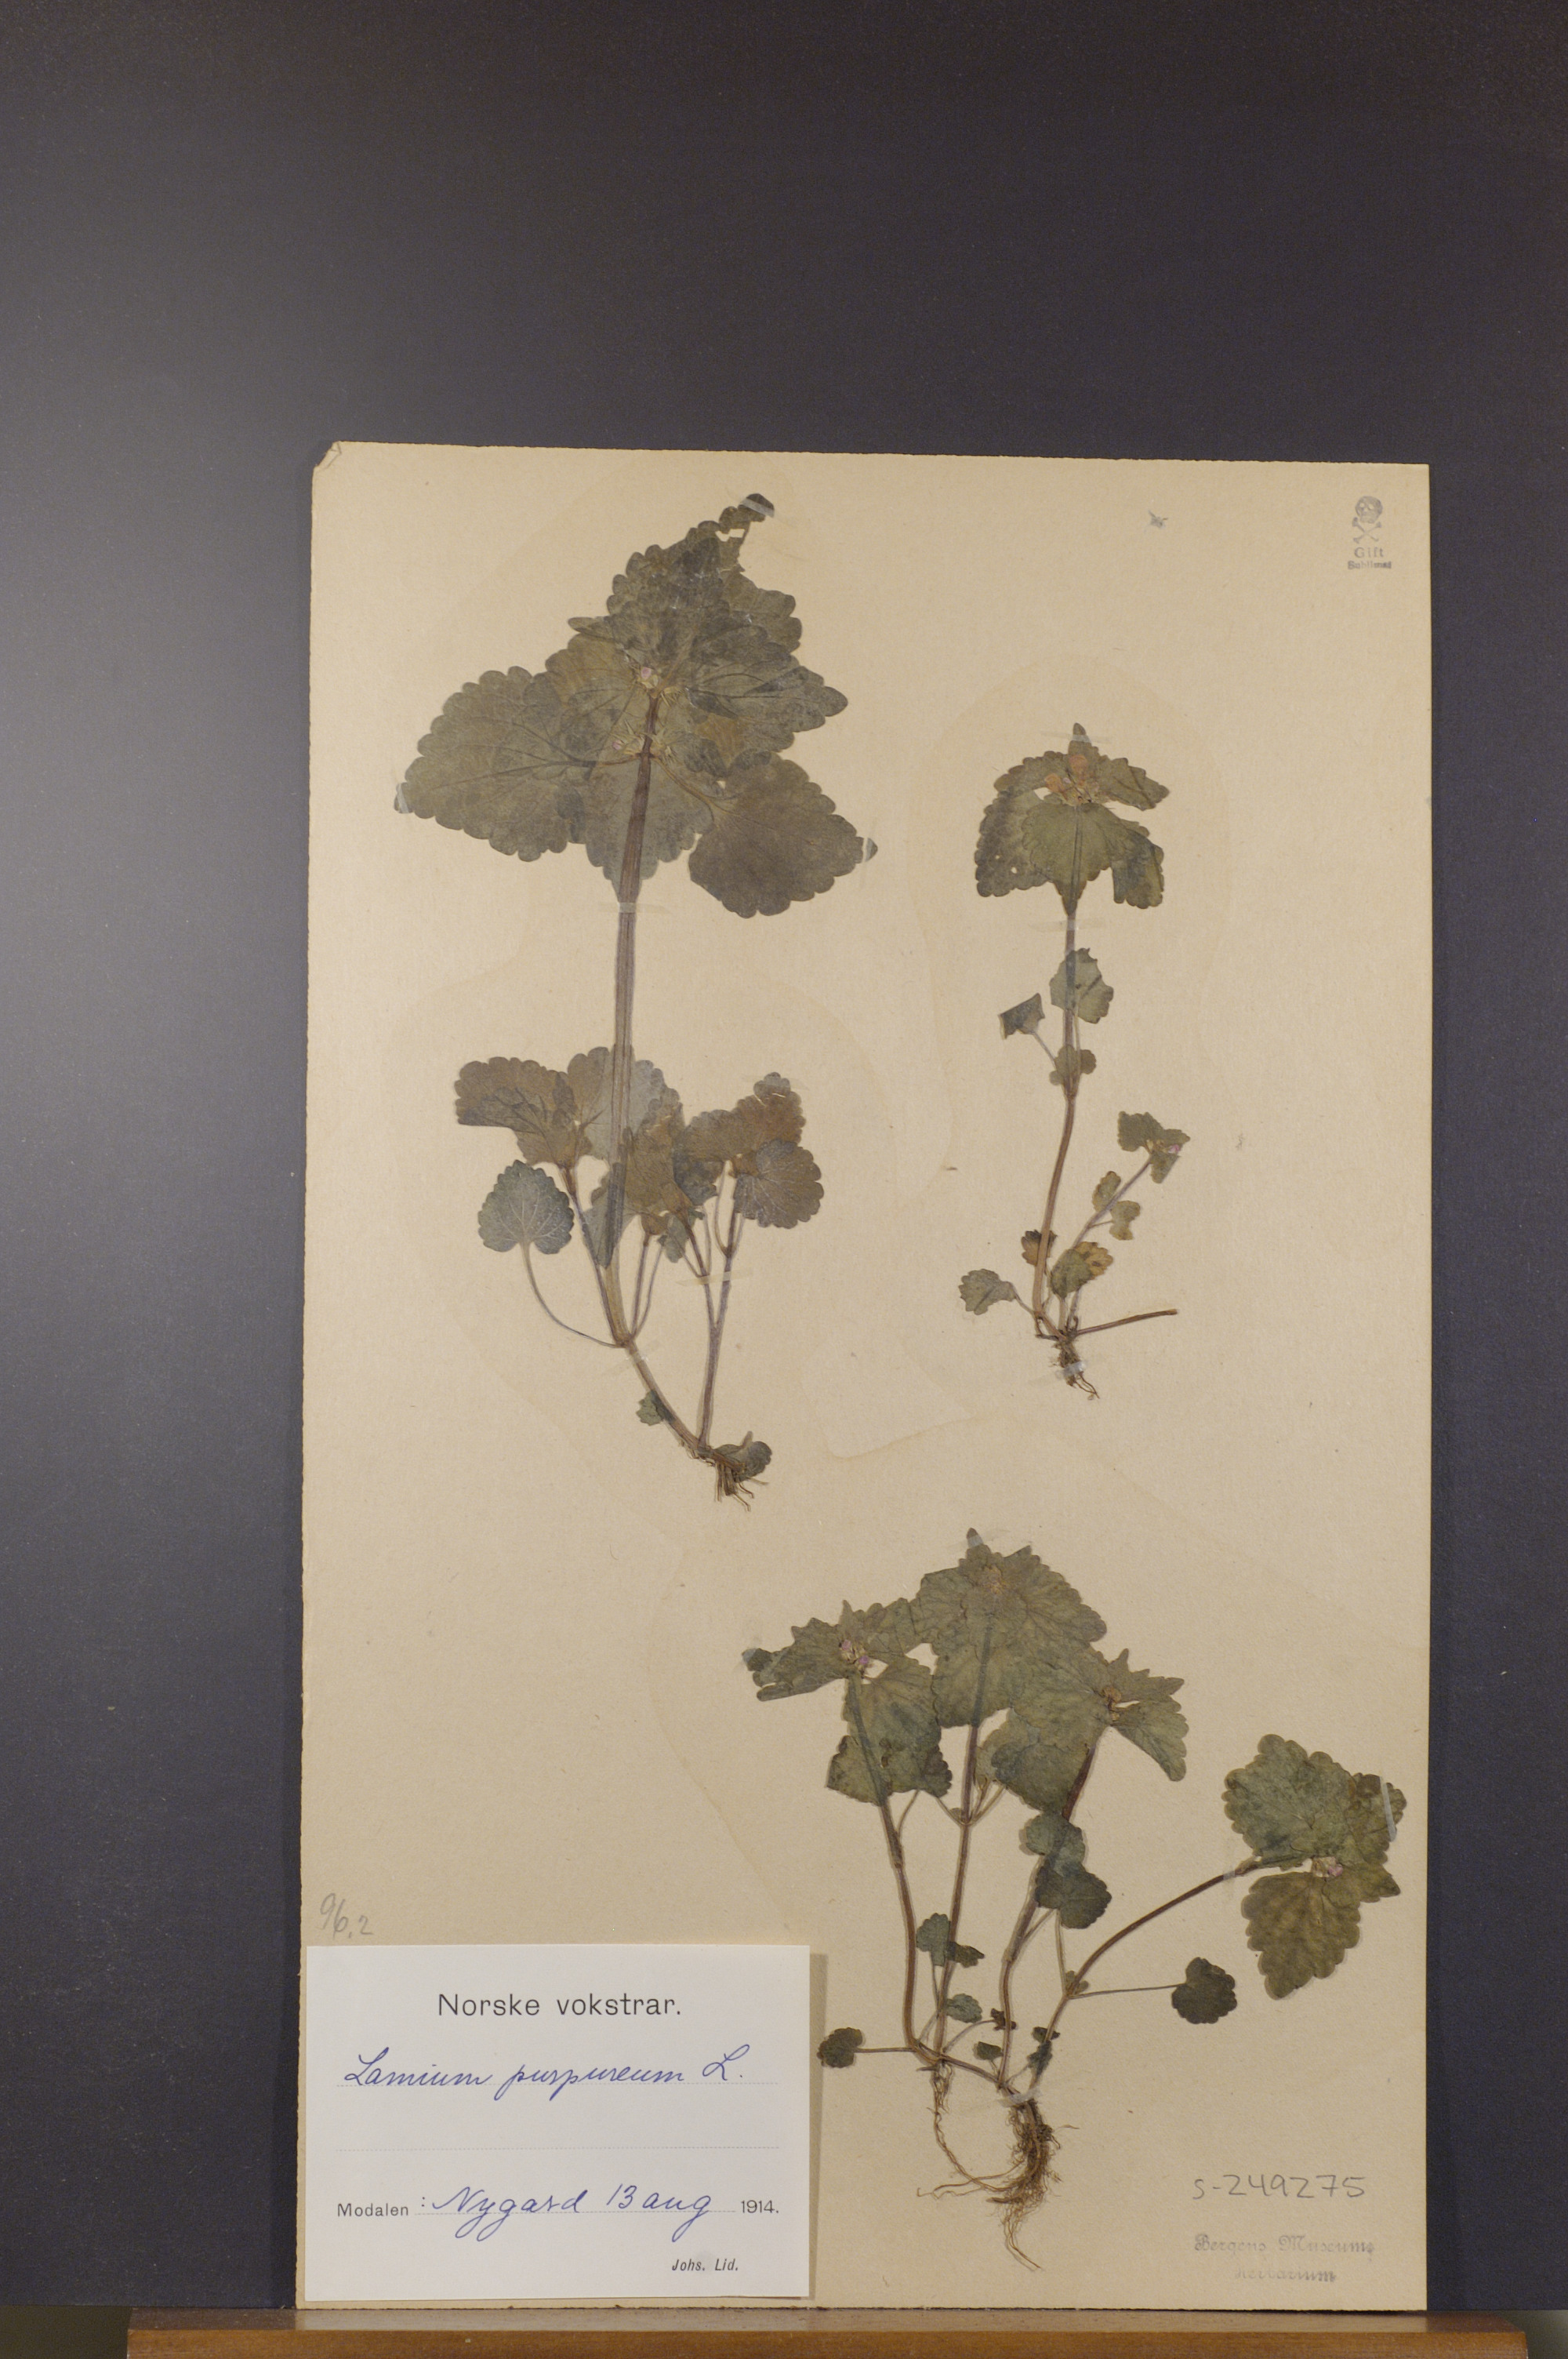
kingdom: Plantae
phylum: Tracheophyta
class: Magnoliopsida
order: Lamiales
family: Lamiaceae
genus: Lamium
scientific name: Lamium purpureum
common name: Red dead-nettle
